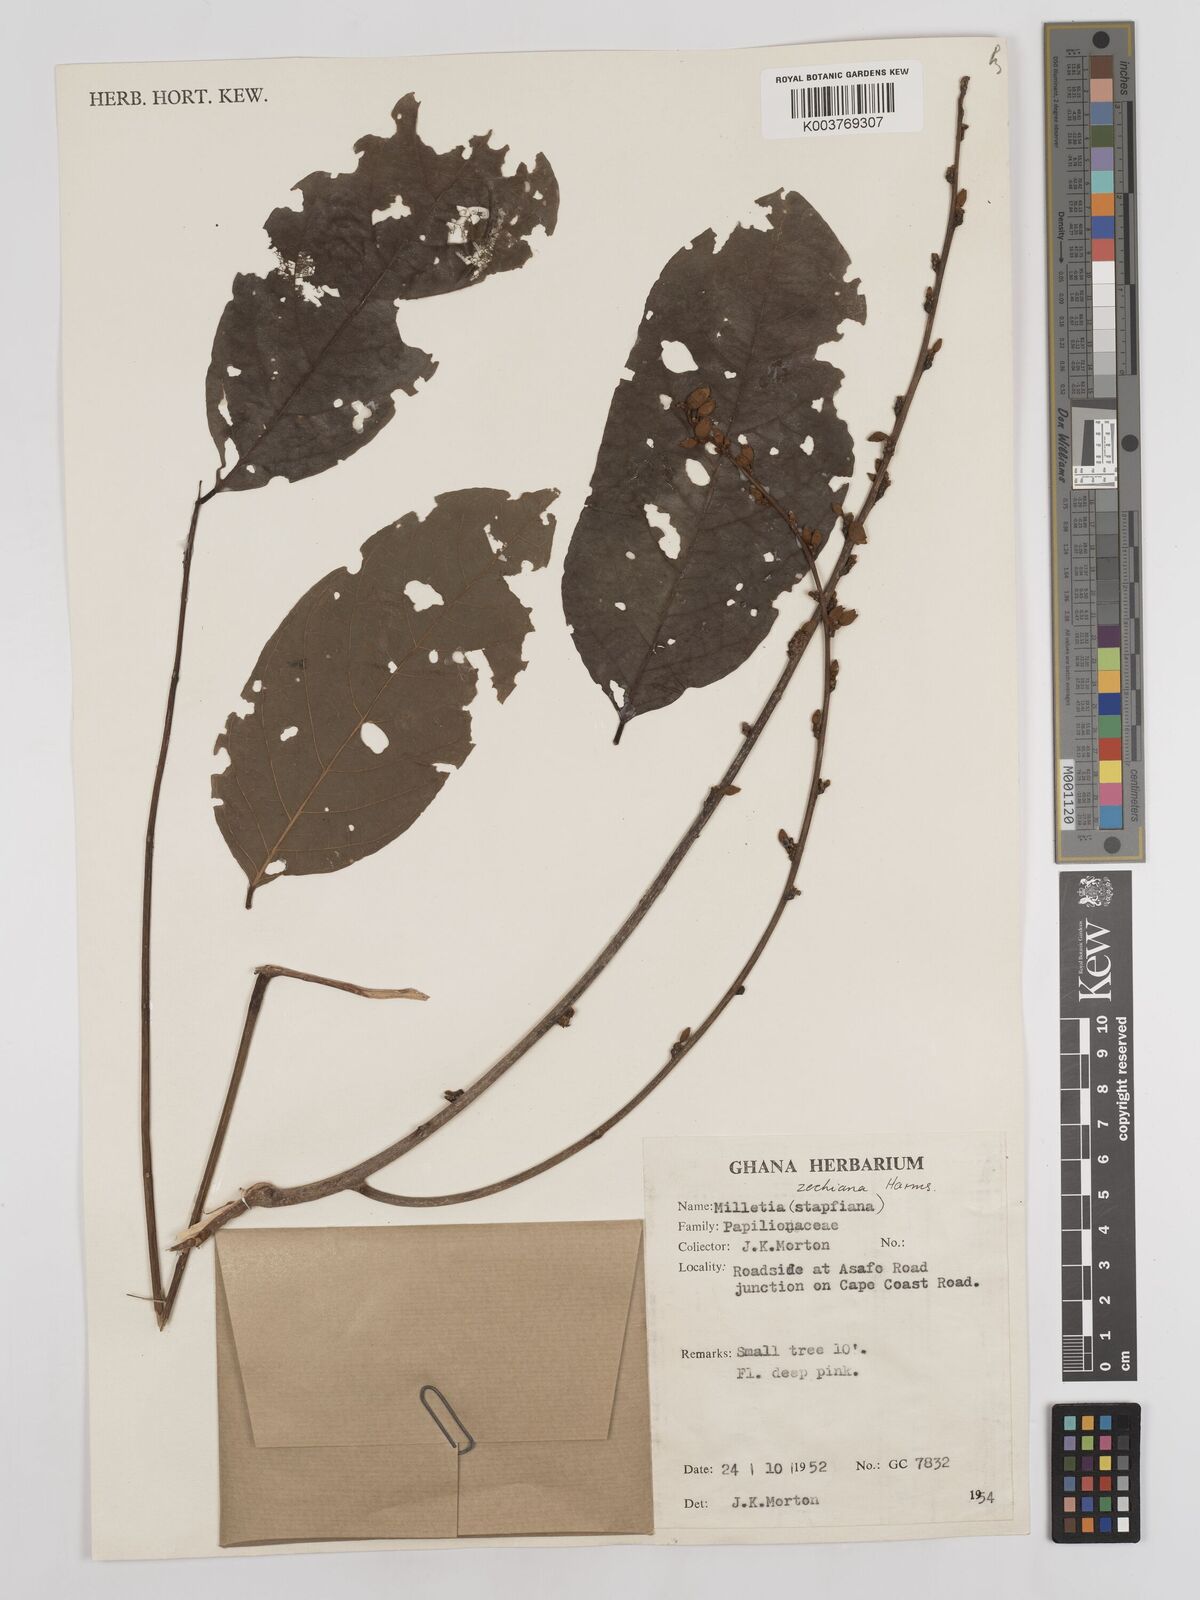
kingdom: Plantae
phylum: Tracheophyta
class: Magnoliopsida
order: Fabales
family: Fabaceae
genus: Millettia
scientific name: Millettia zechiana
